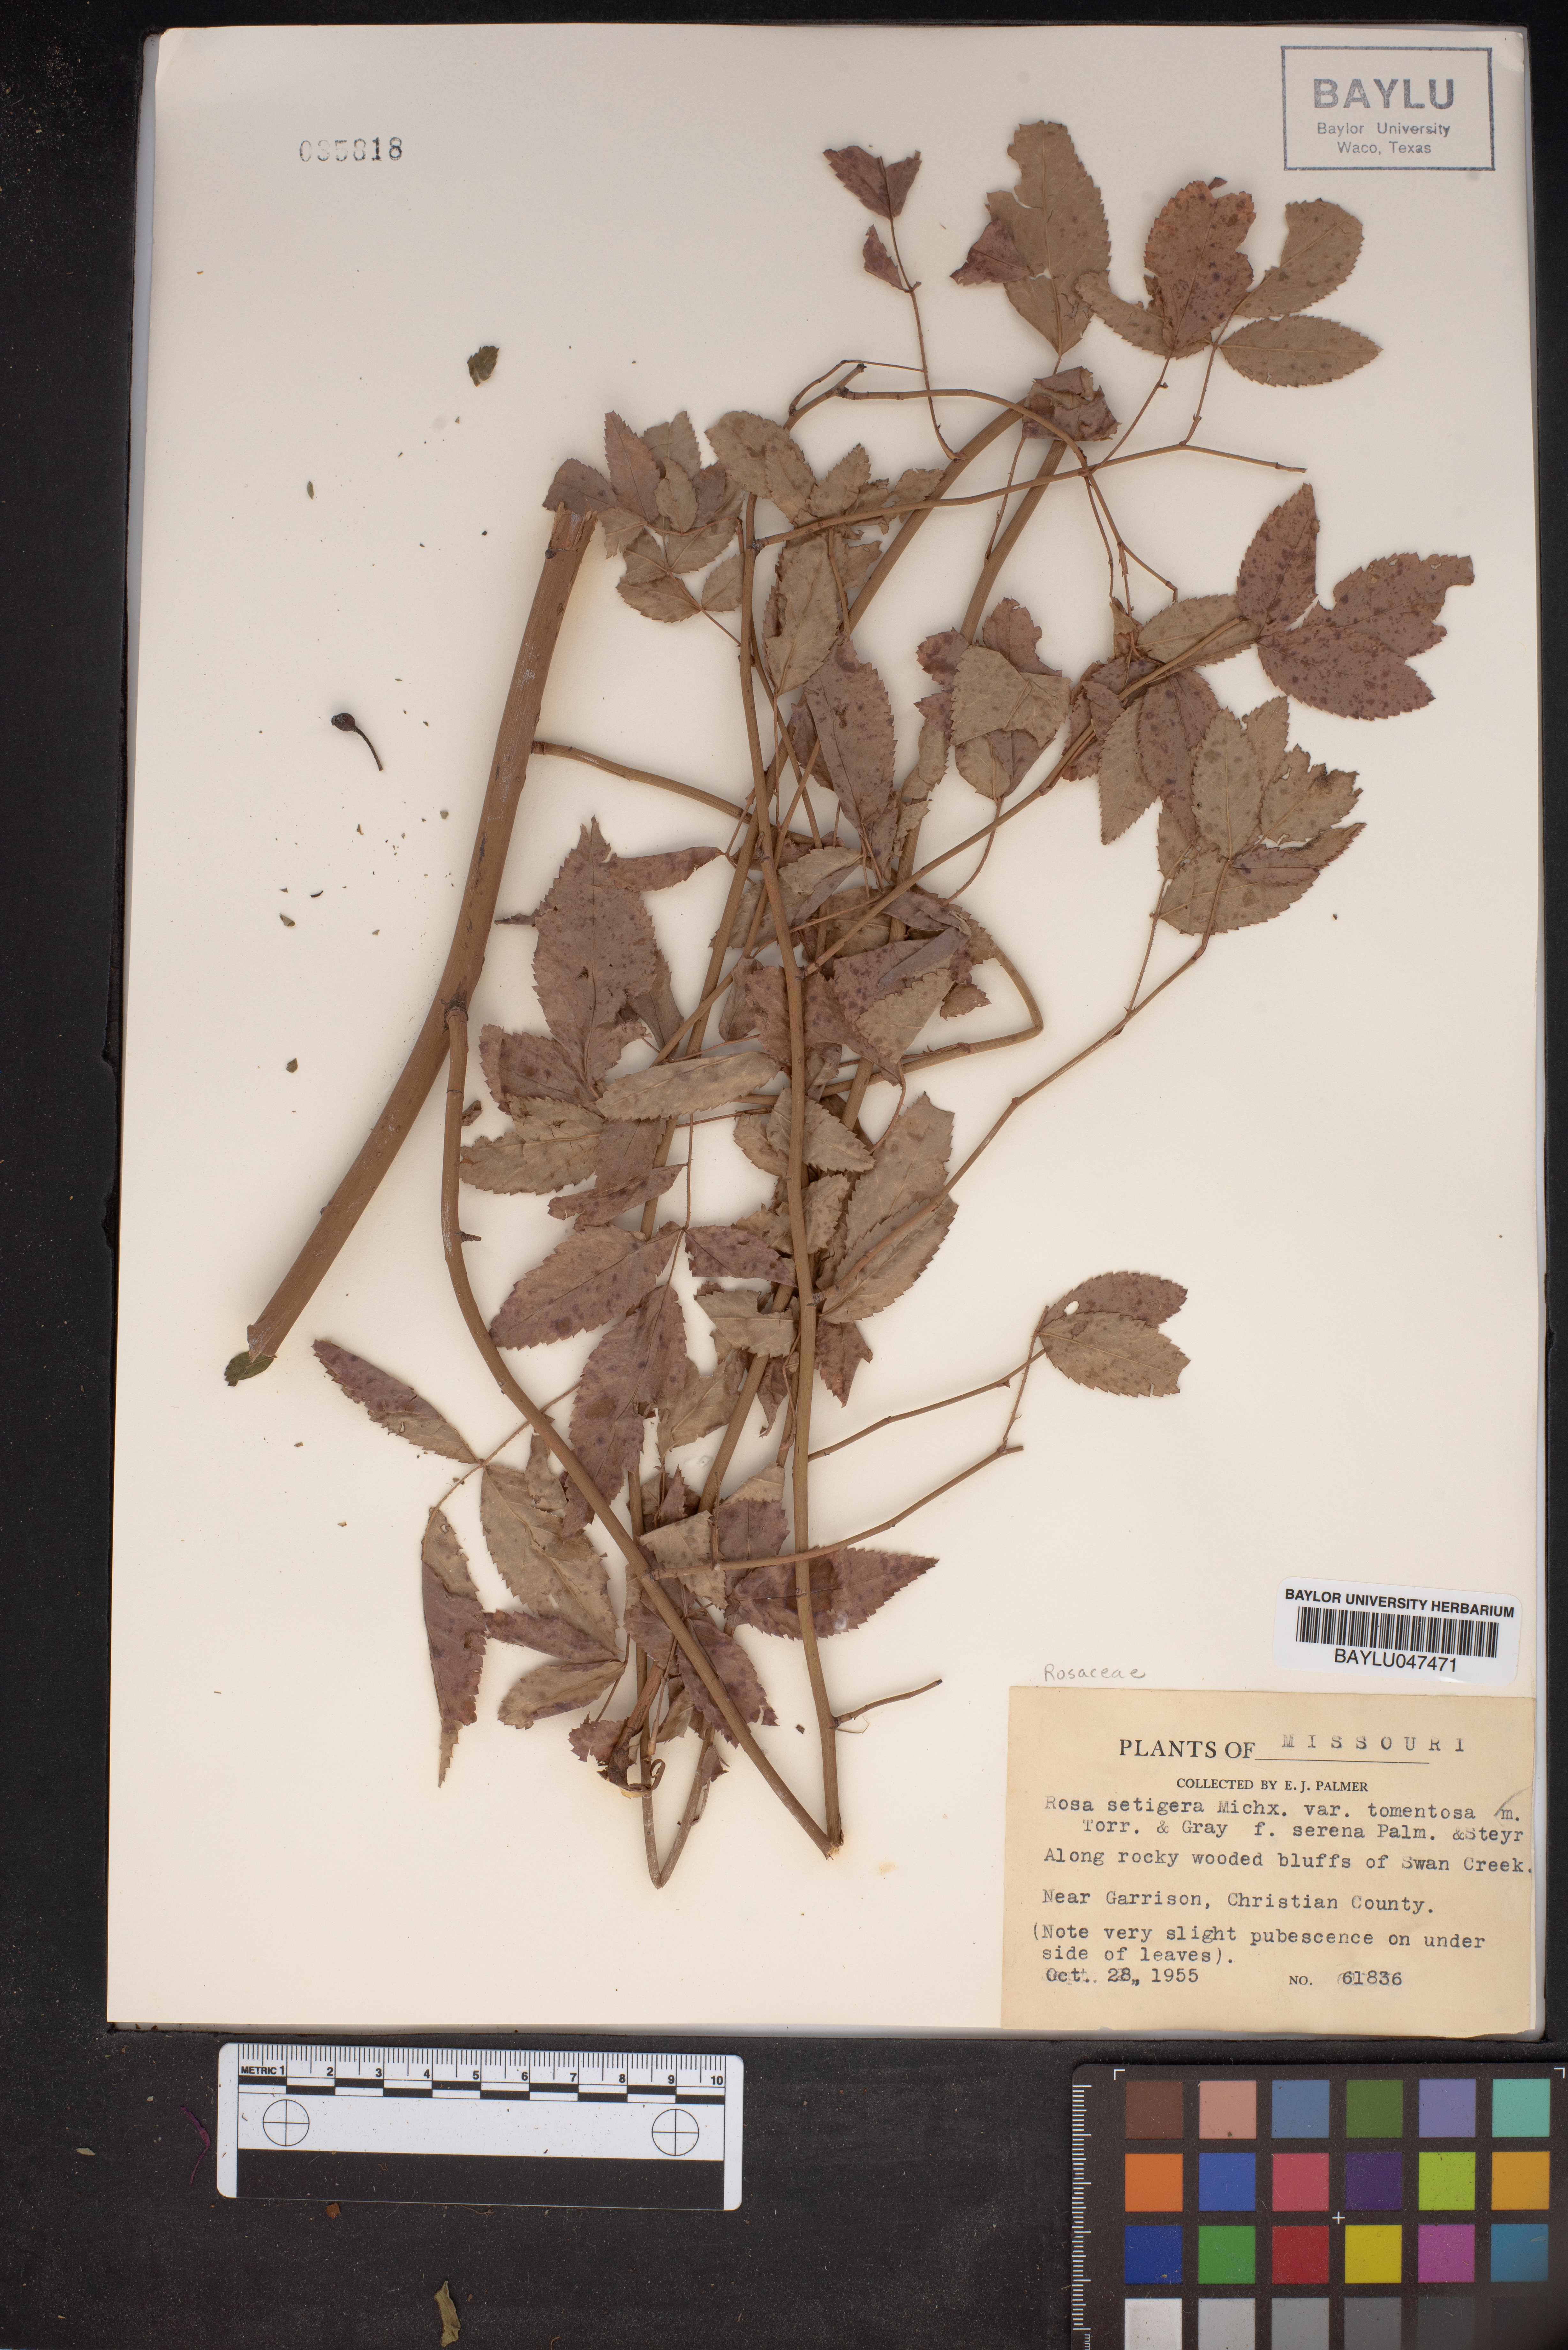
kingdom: Plantae
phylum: Tracheophyta
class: Magnoliopsida
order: Rosales
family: Rosaceae
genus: Rosa
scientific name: Rosa setigera
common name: Prairie rose
